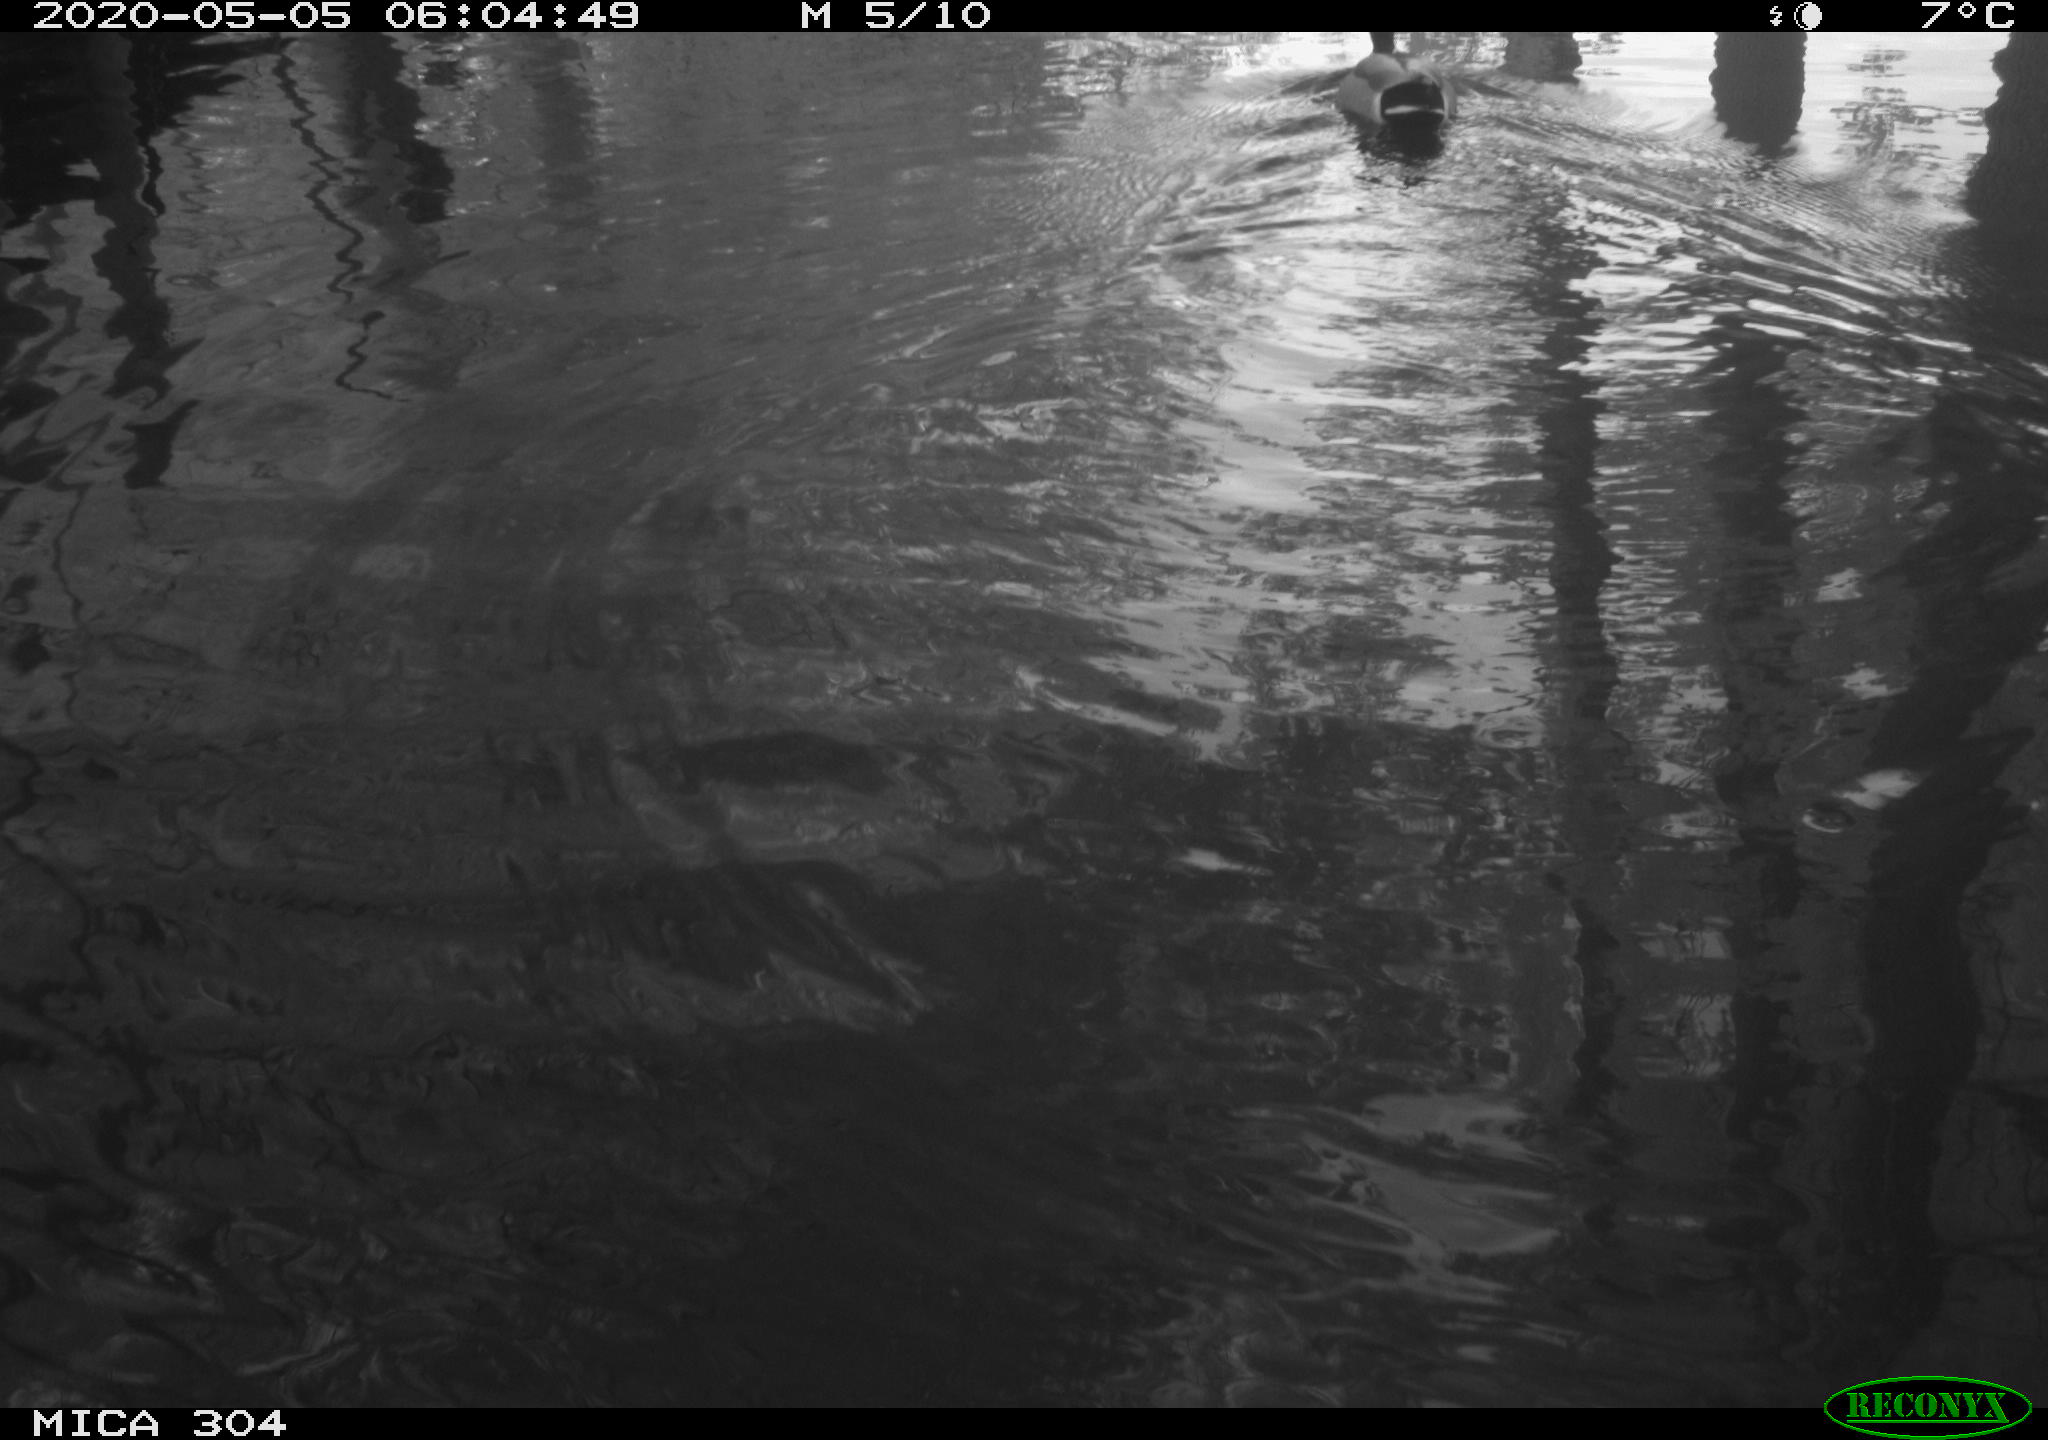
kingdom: Animalia
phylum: Chordata
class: Aves
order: Anseriformes
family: Anatidae
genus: Anas
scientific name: Anas platyrhynchos
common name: Mallard
